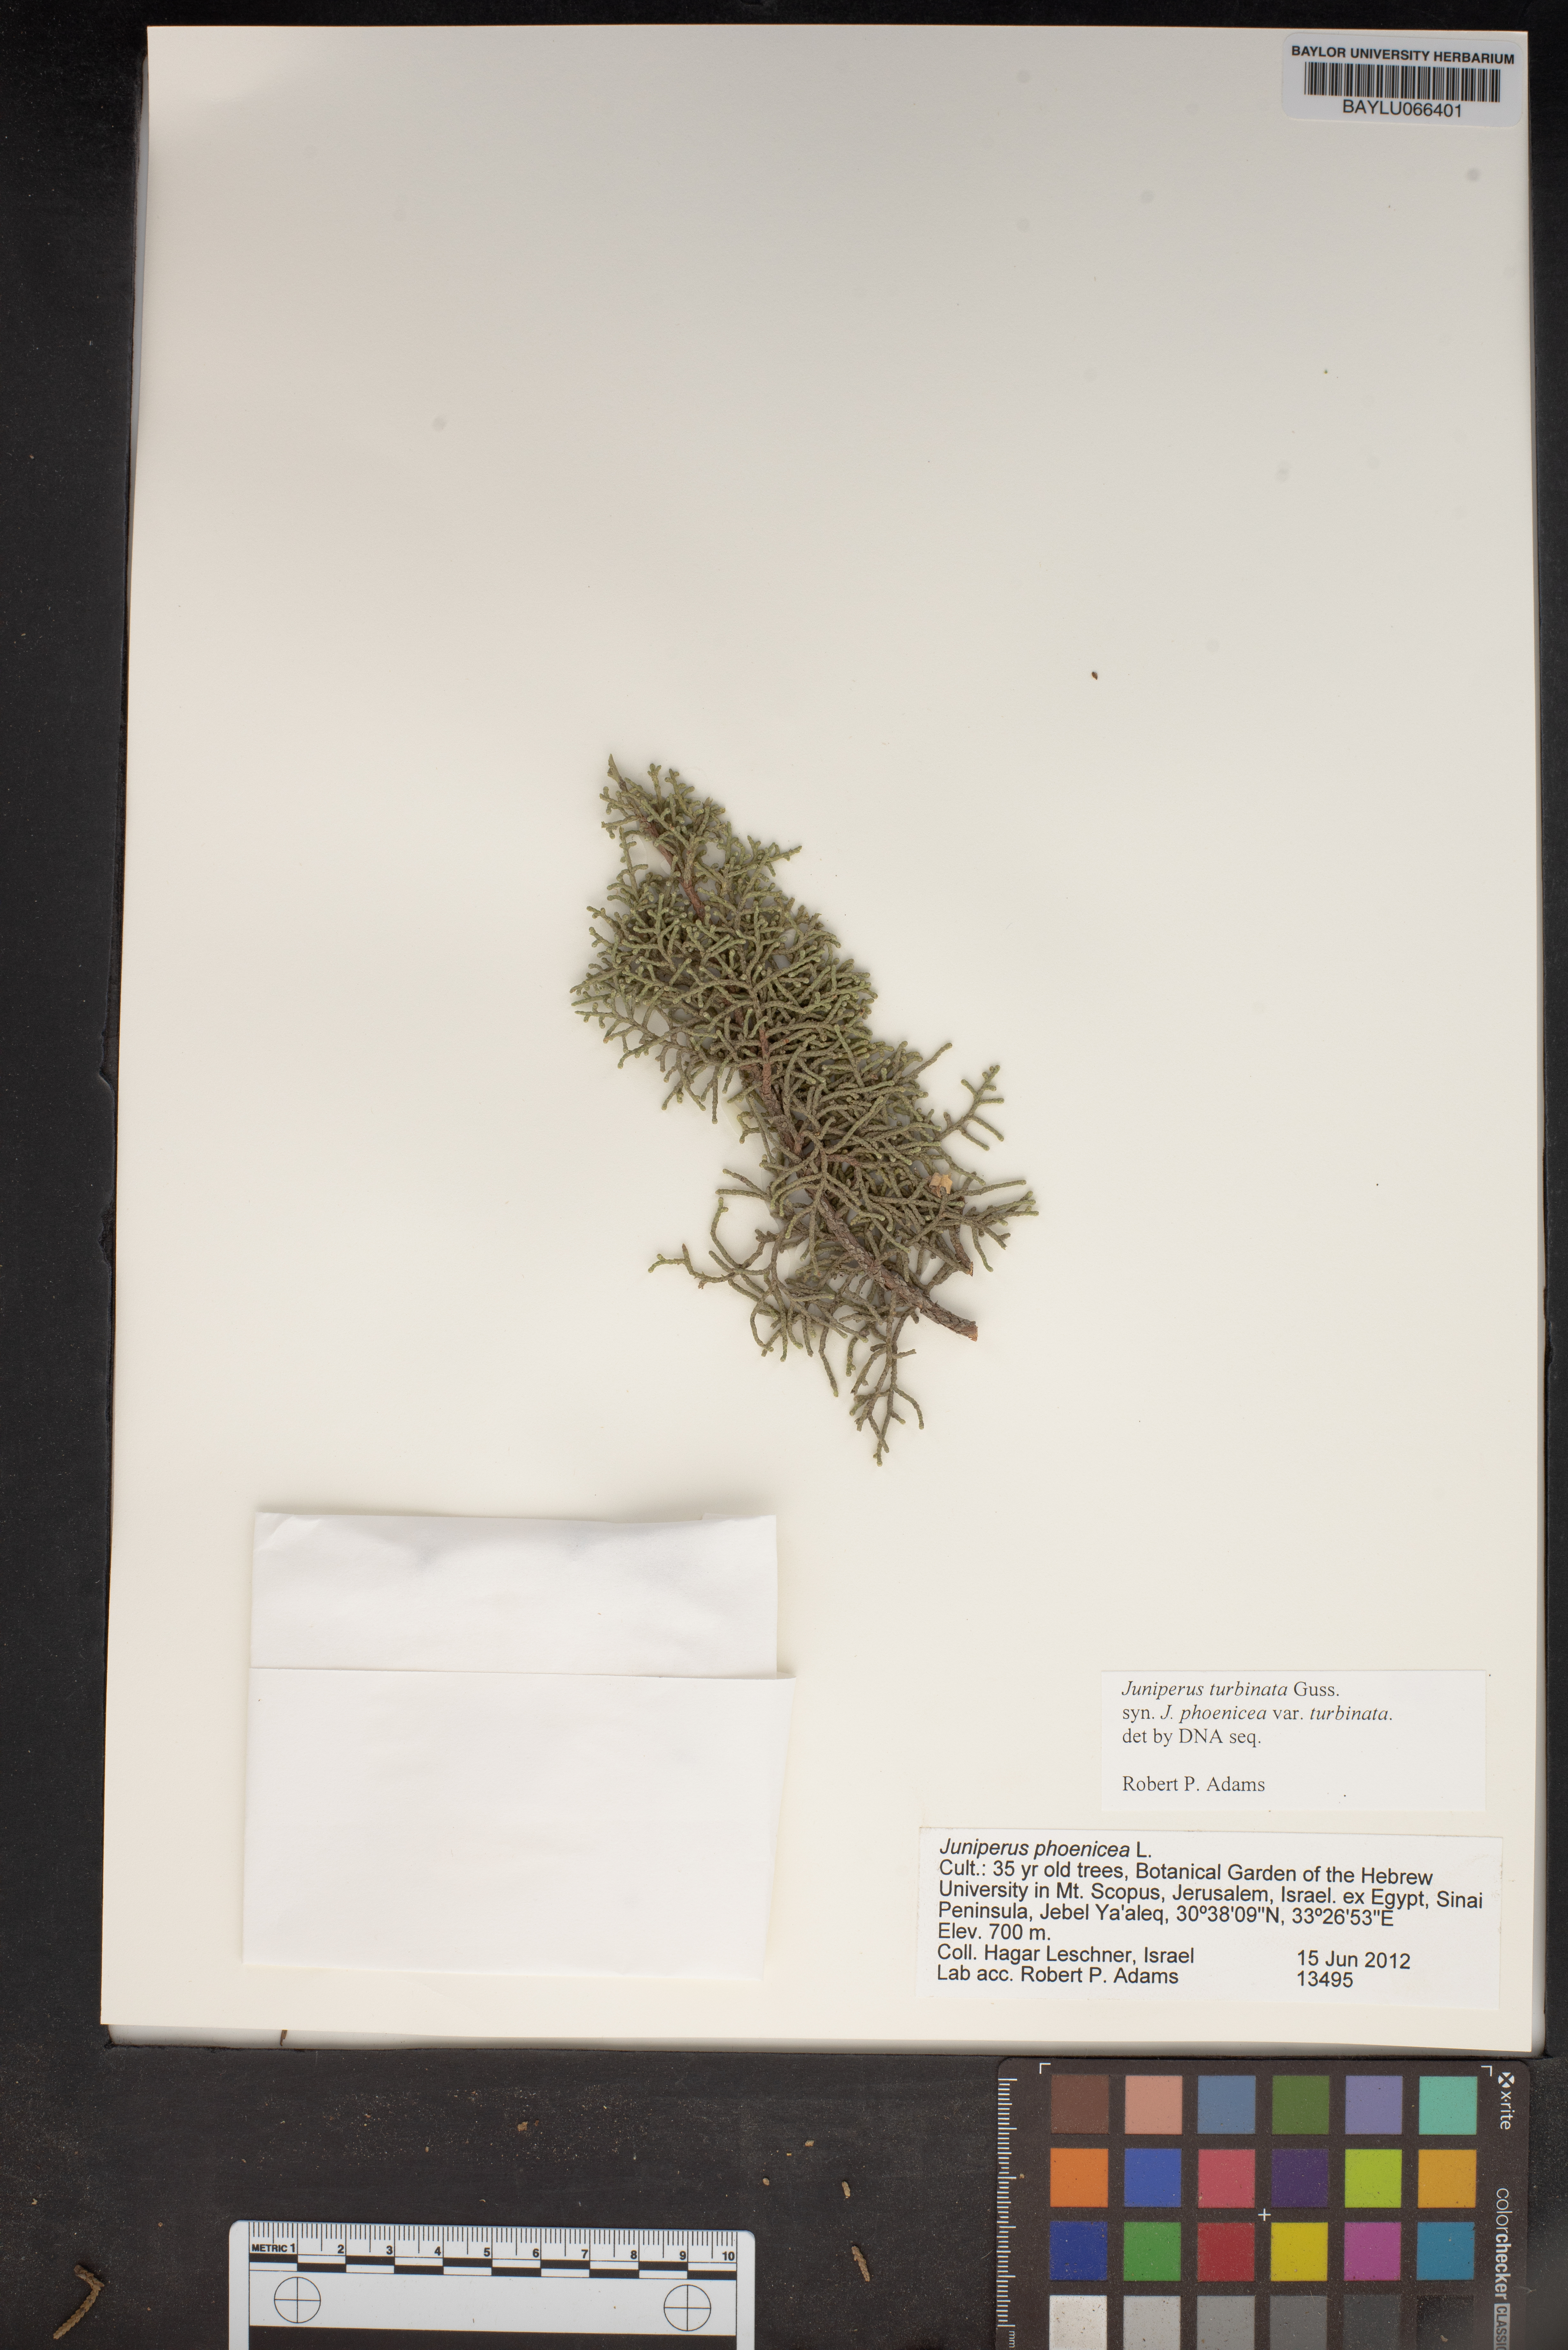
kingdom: Plantae
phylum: Tracheophyta
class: Pinopsida
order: Pinales
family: Cupressaceae
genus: Juniperus
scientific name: Juniperus phoenicea
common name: Phoenician juniper
